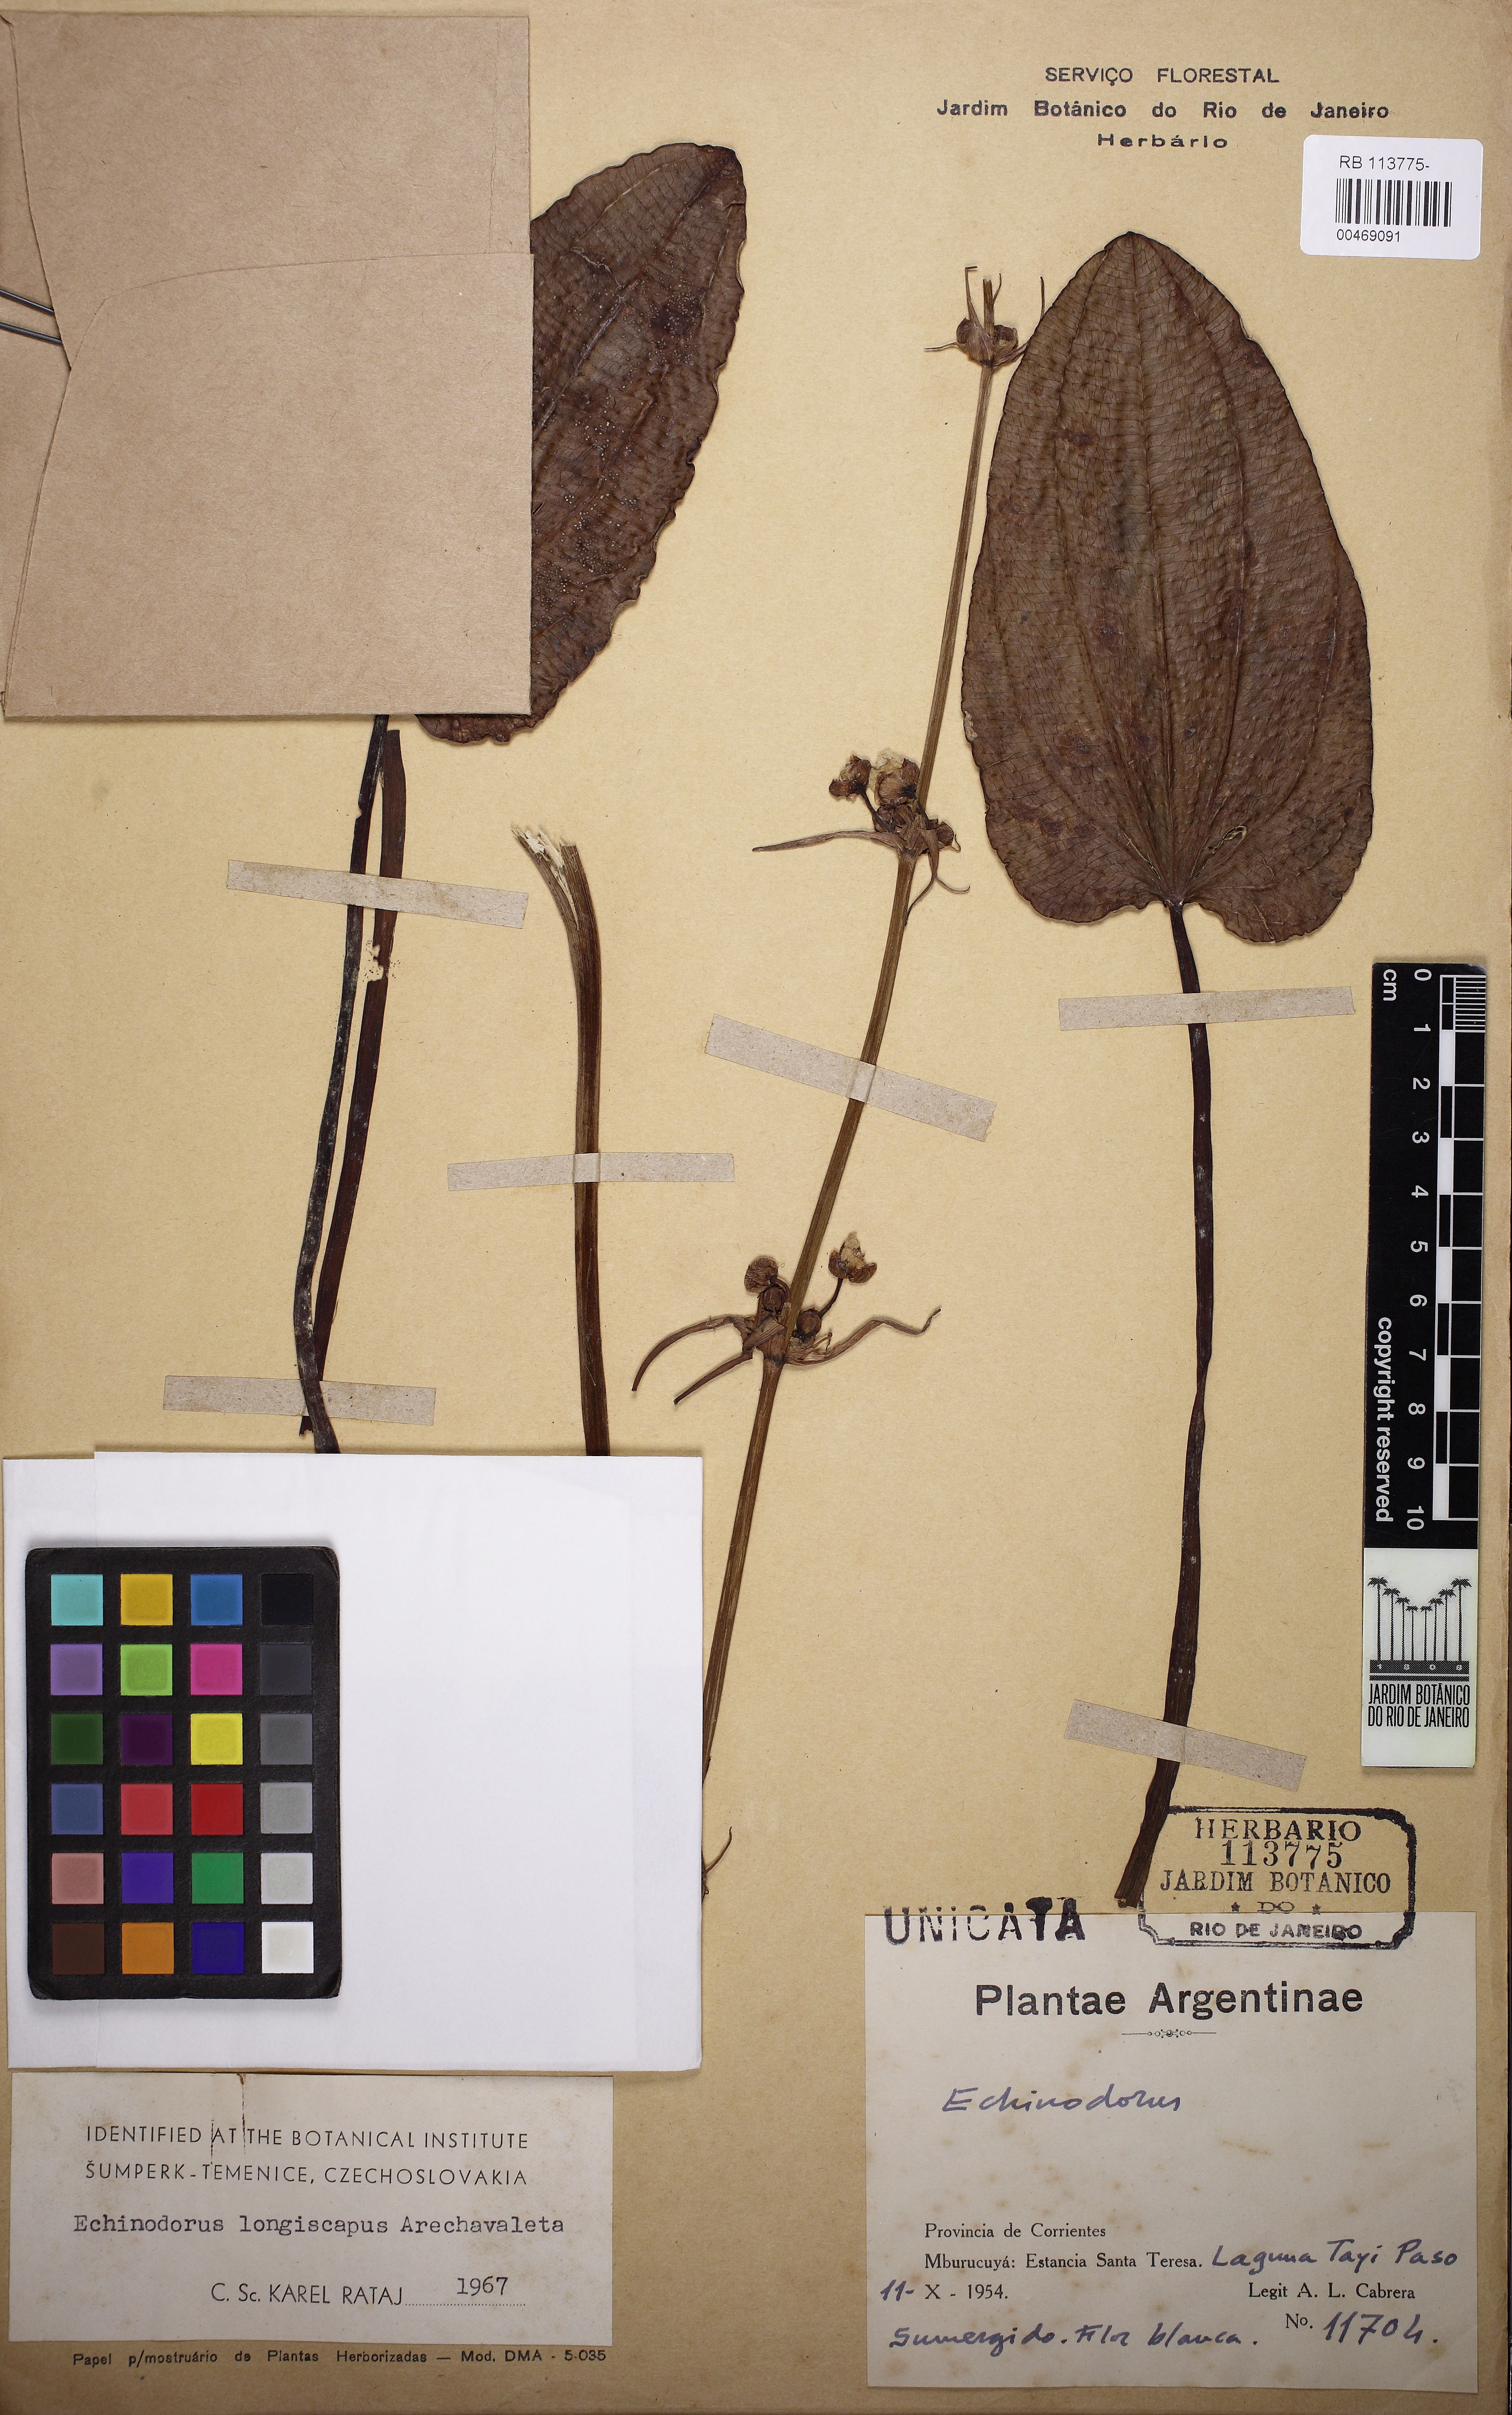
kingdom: Plantae
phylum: Tracheophyta
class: Liliopsida
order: Alismatales
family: Alismataceae
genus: Aquarius
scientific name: Aquarius longiscapus
